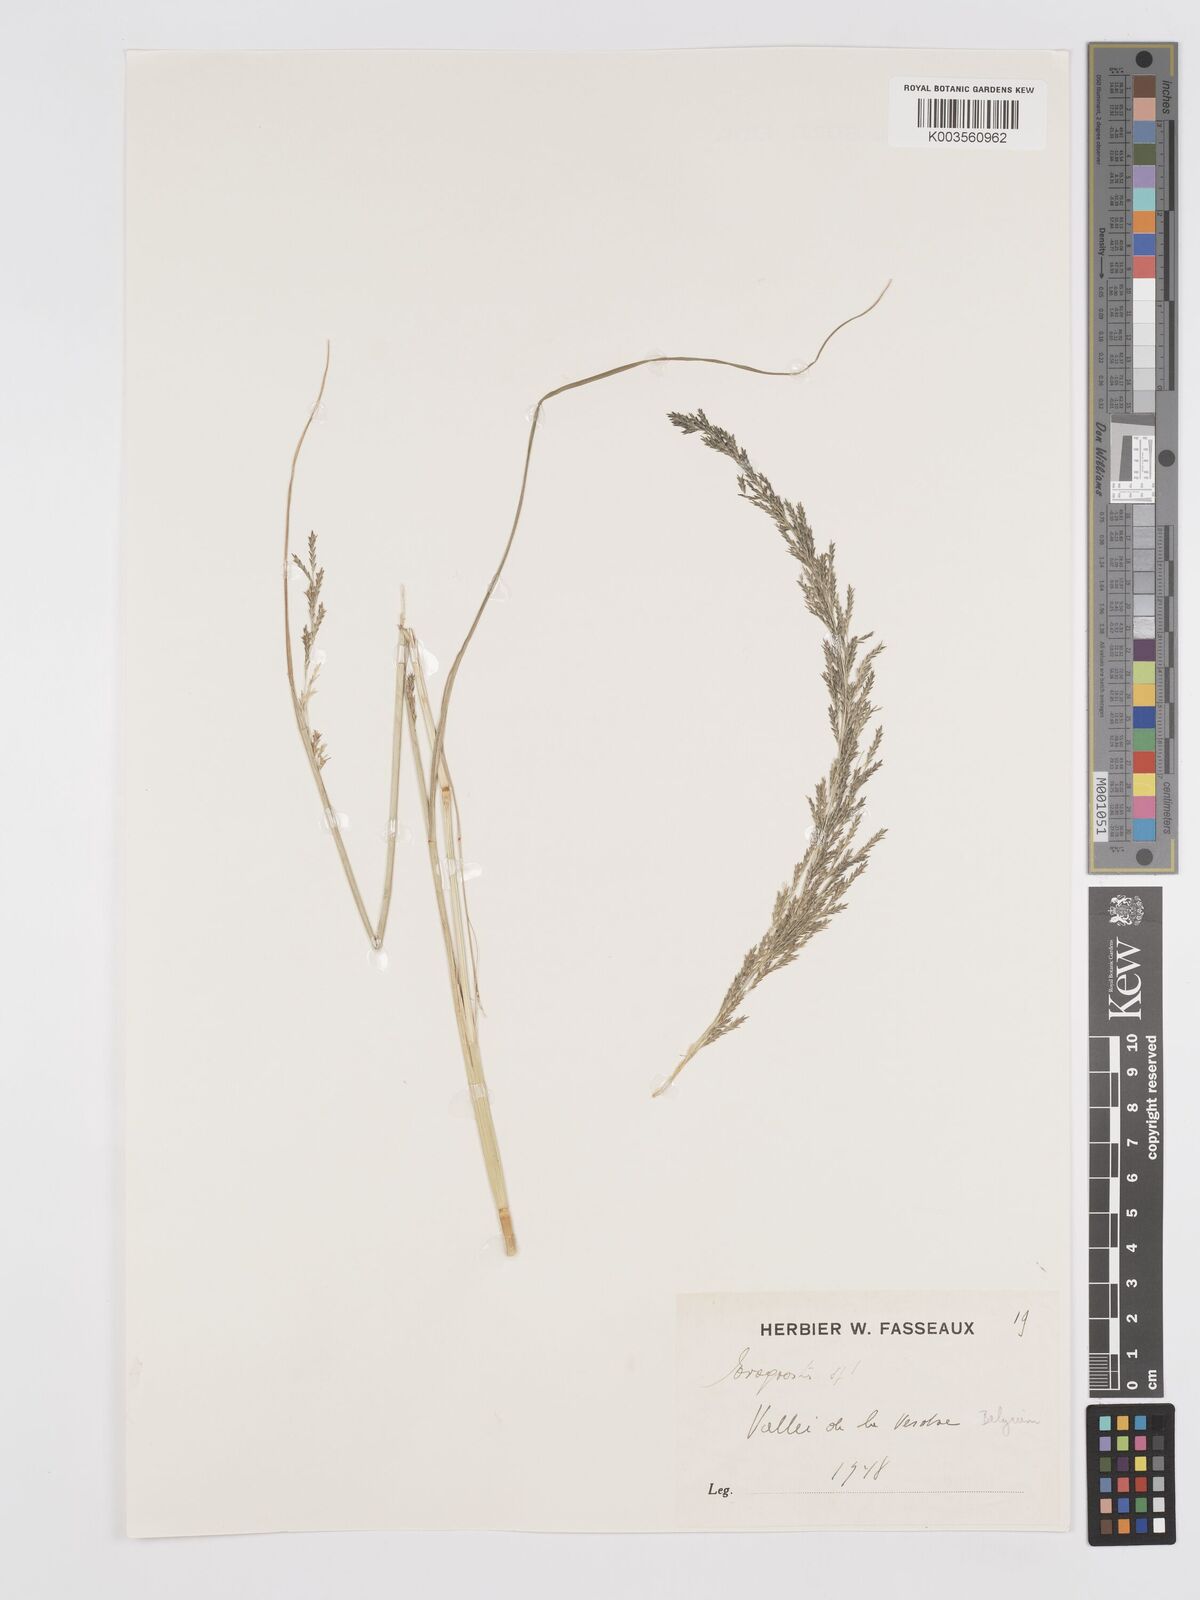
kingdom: Plantae
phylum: Tracheophyta
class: Liliopsida
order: Poales
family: Poaceae
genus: Eragrostis
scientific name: Eragrostis plana
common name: South african lovegrass
